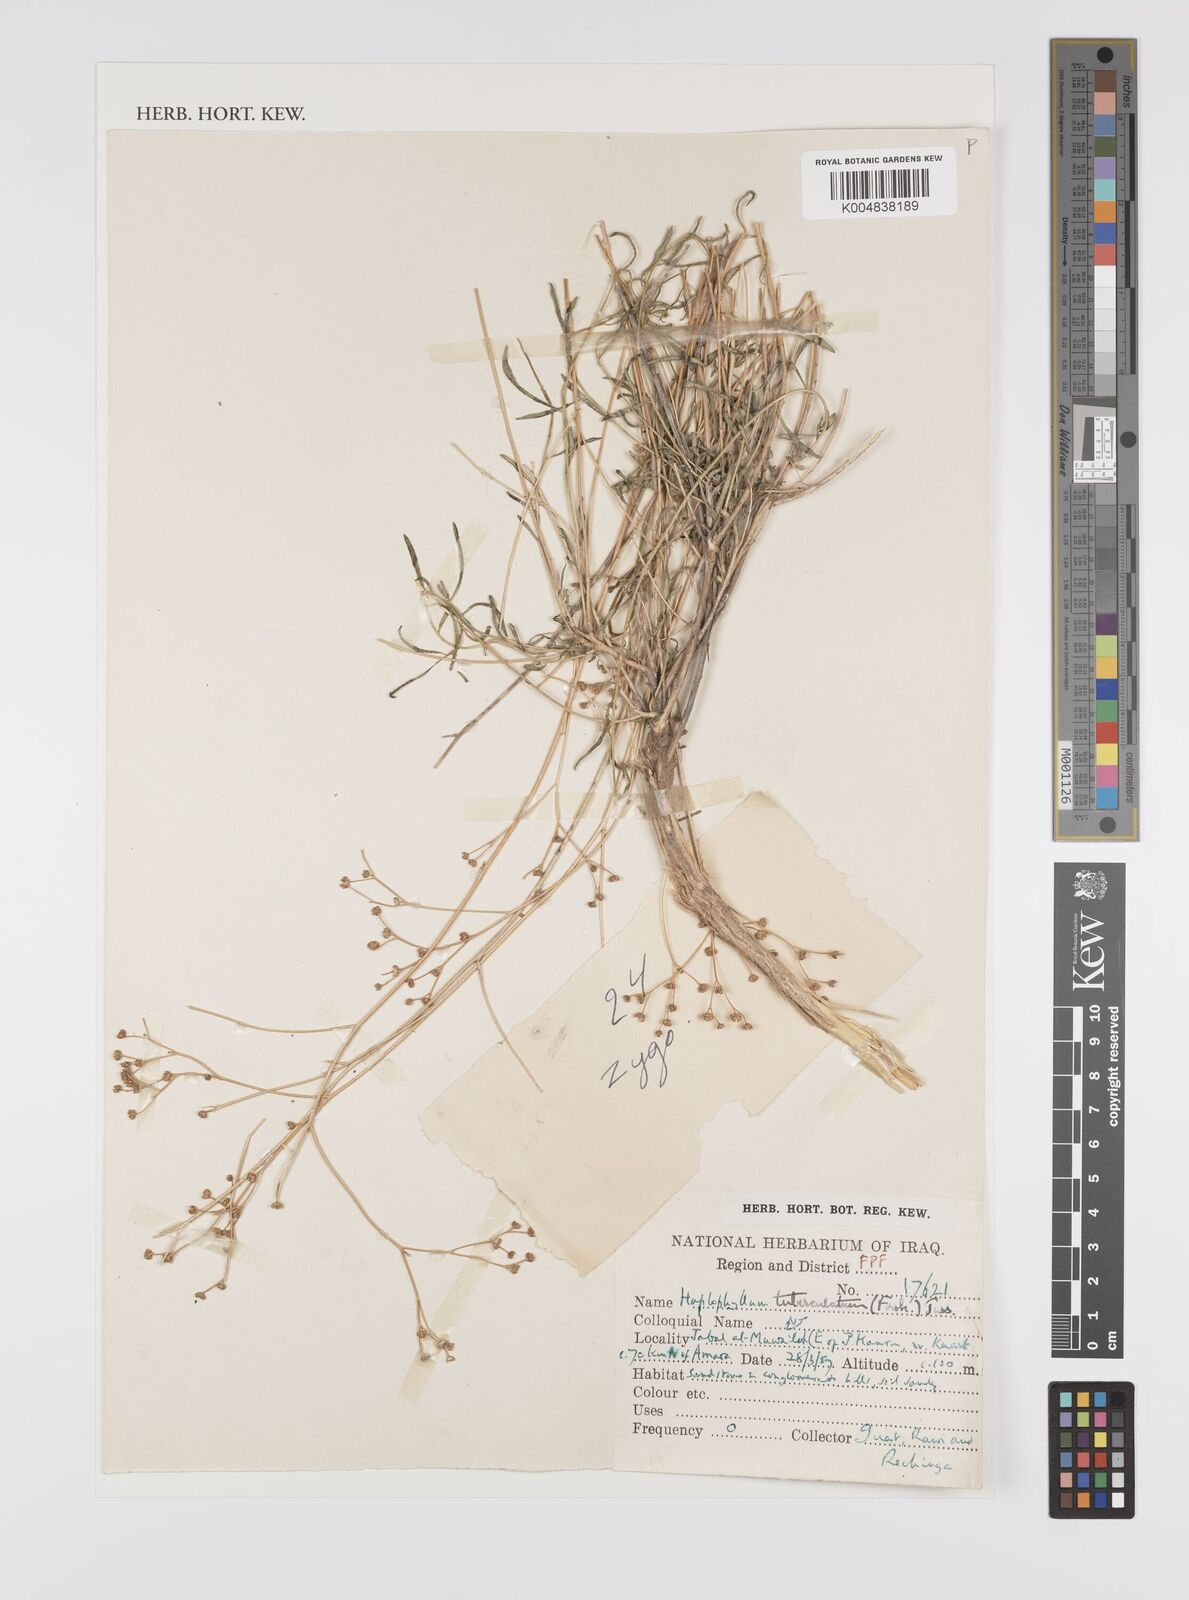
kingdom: Plantae
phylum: Tracheophyta
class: Magnoliopsida
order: Sapindales
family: Rutaceae
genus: Haplophyllum
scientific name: Haplophyllum tuberculatum
